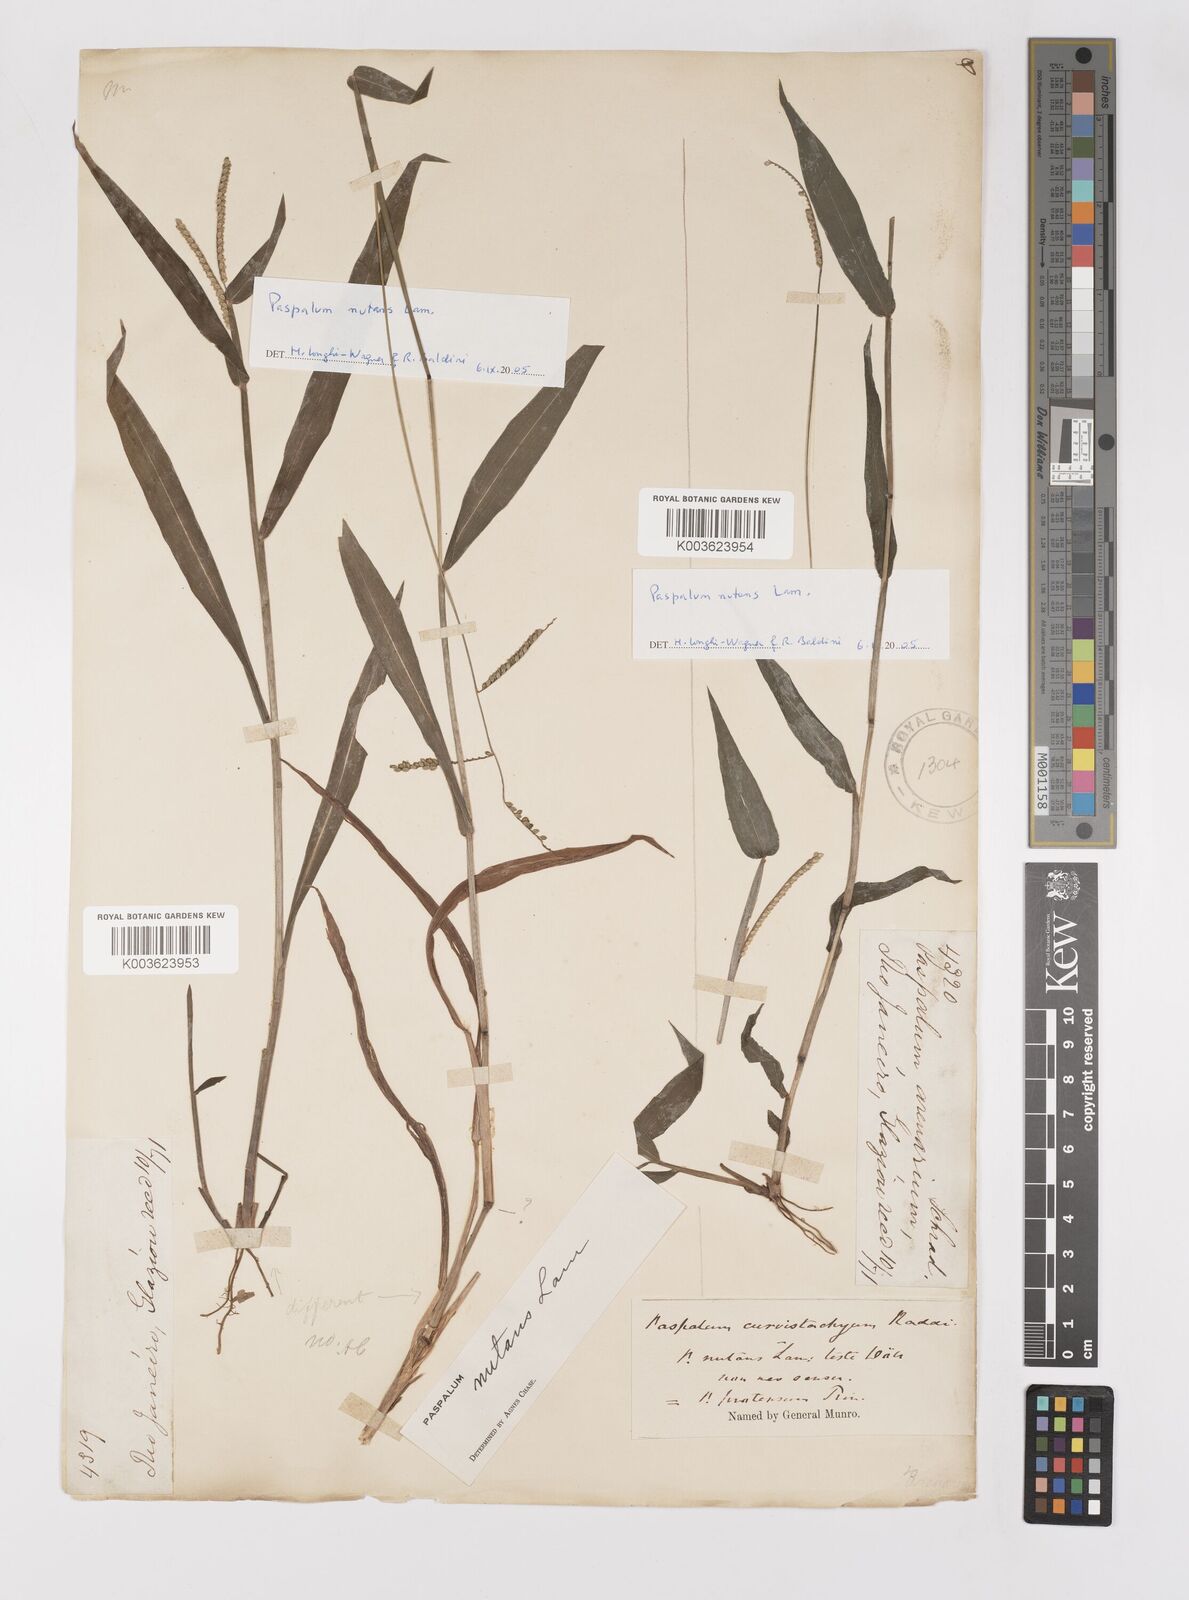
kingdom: Plantae
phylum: Tracheophyta
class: Liliopsida
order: Poales
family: Poaceae
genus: Paspalum
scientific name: Paspalum nutans
